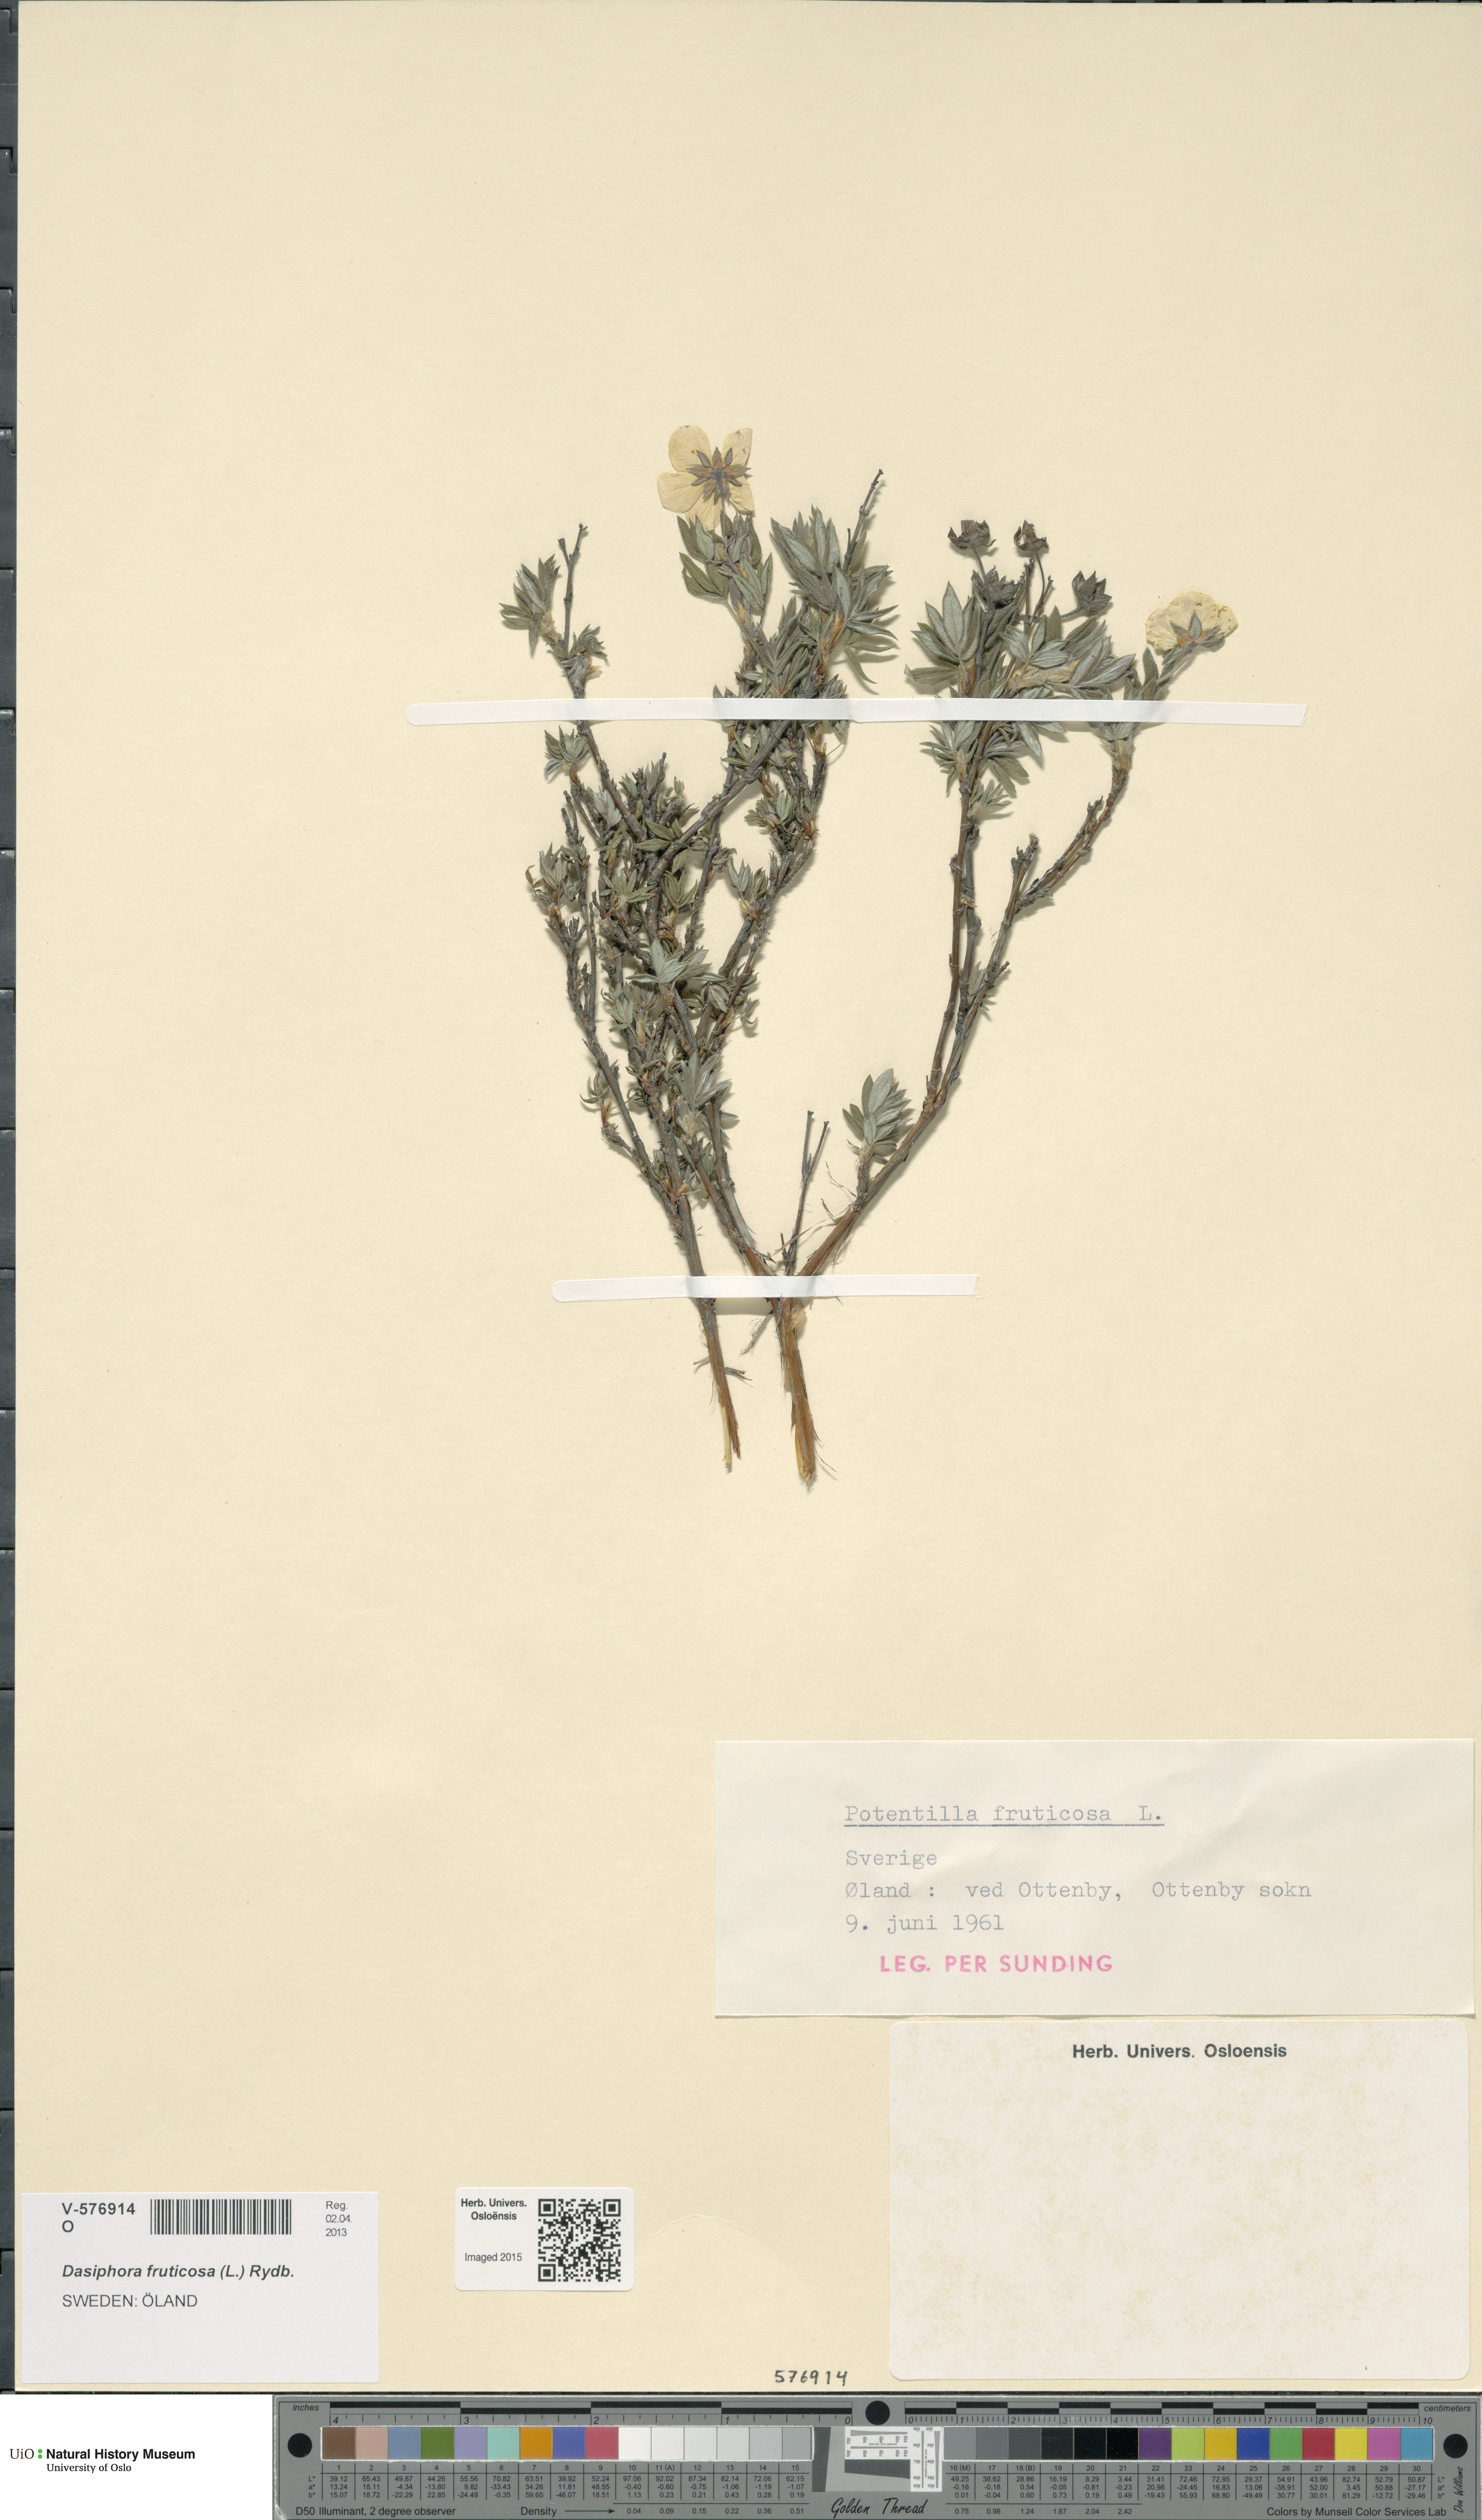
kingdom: Plantae
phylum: Tracheophyta
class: Magnoliopsida
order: Rosales
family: Rosaceae
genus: Dasiphora
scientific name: Dasiphora fruticosa
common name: Shrubby cinquefoil
